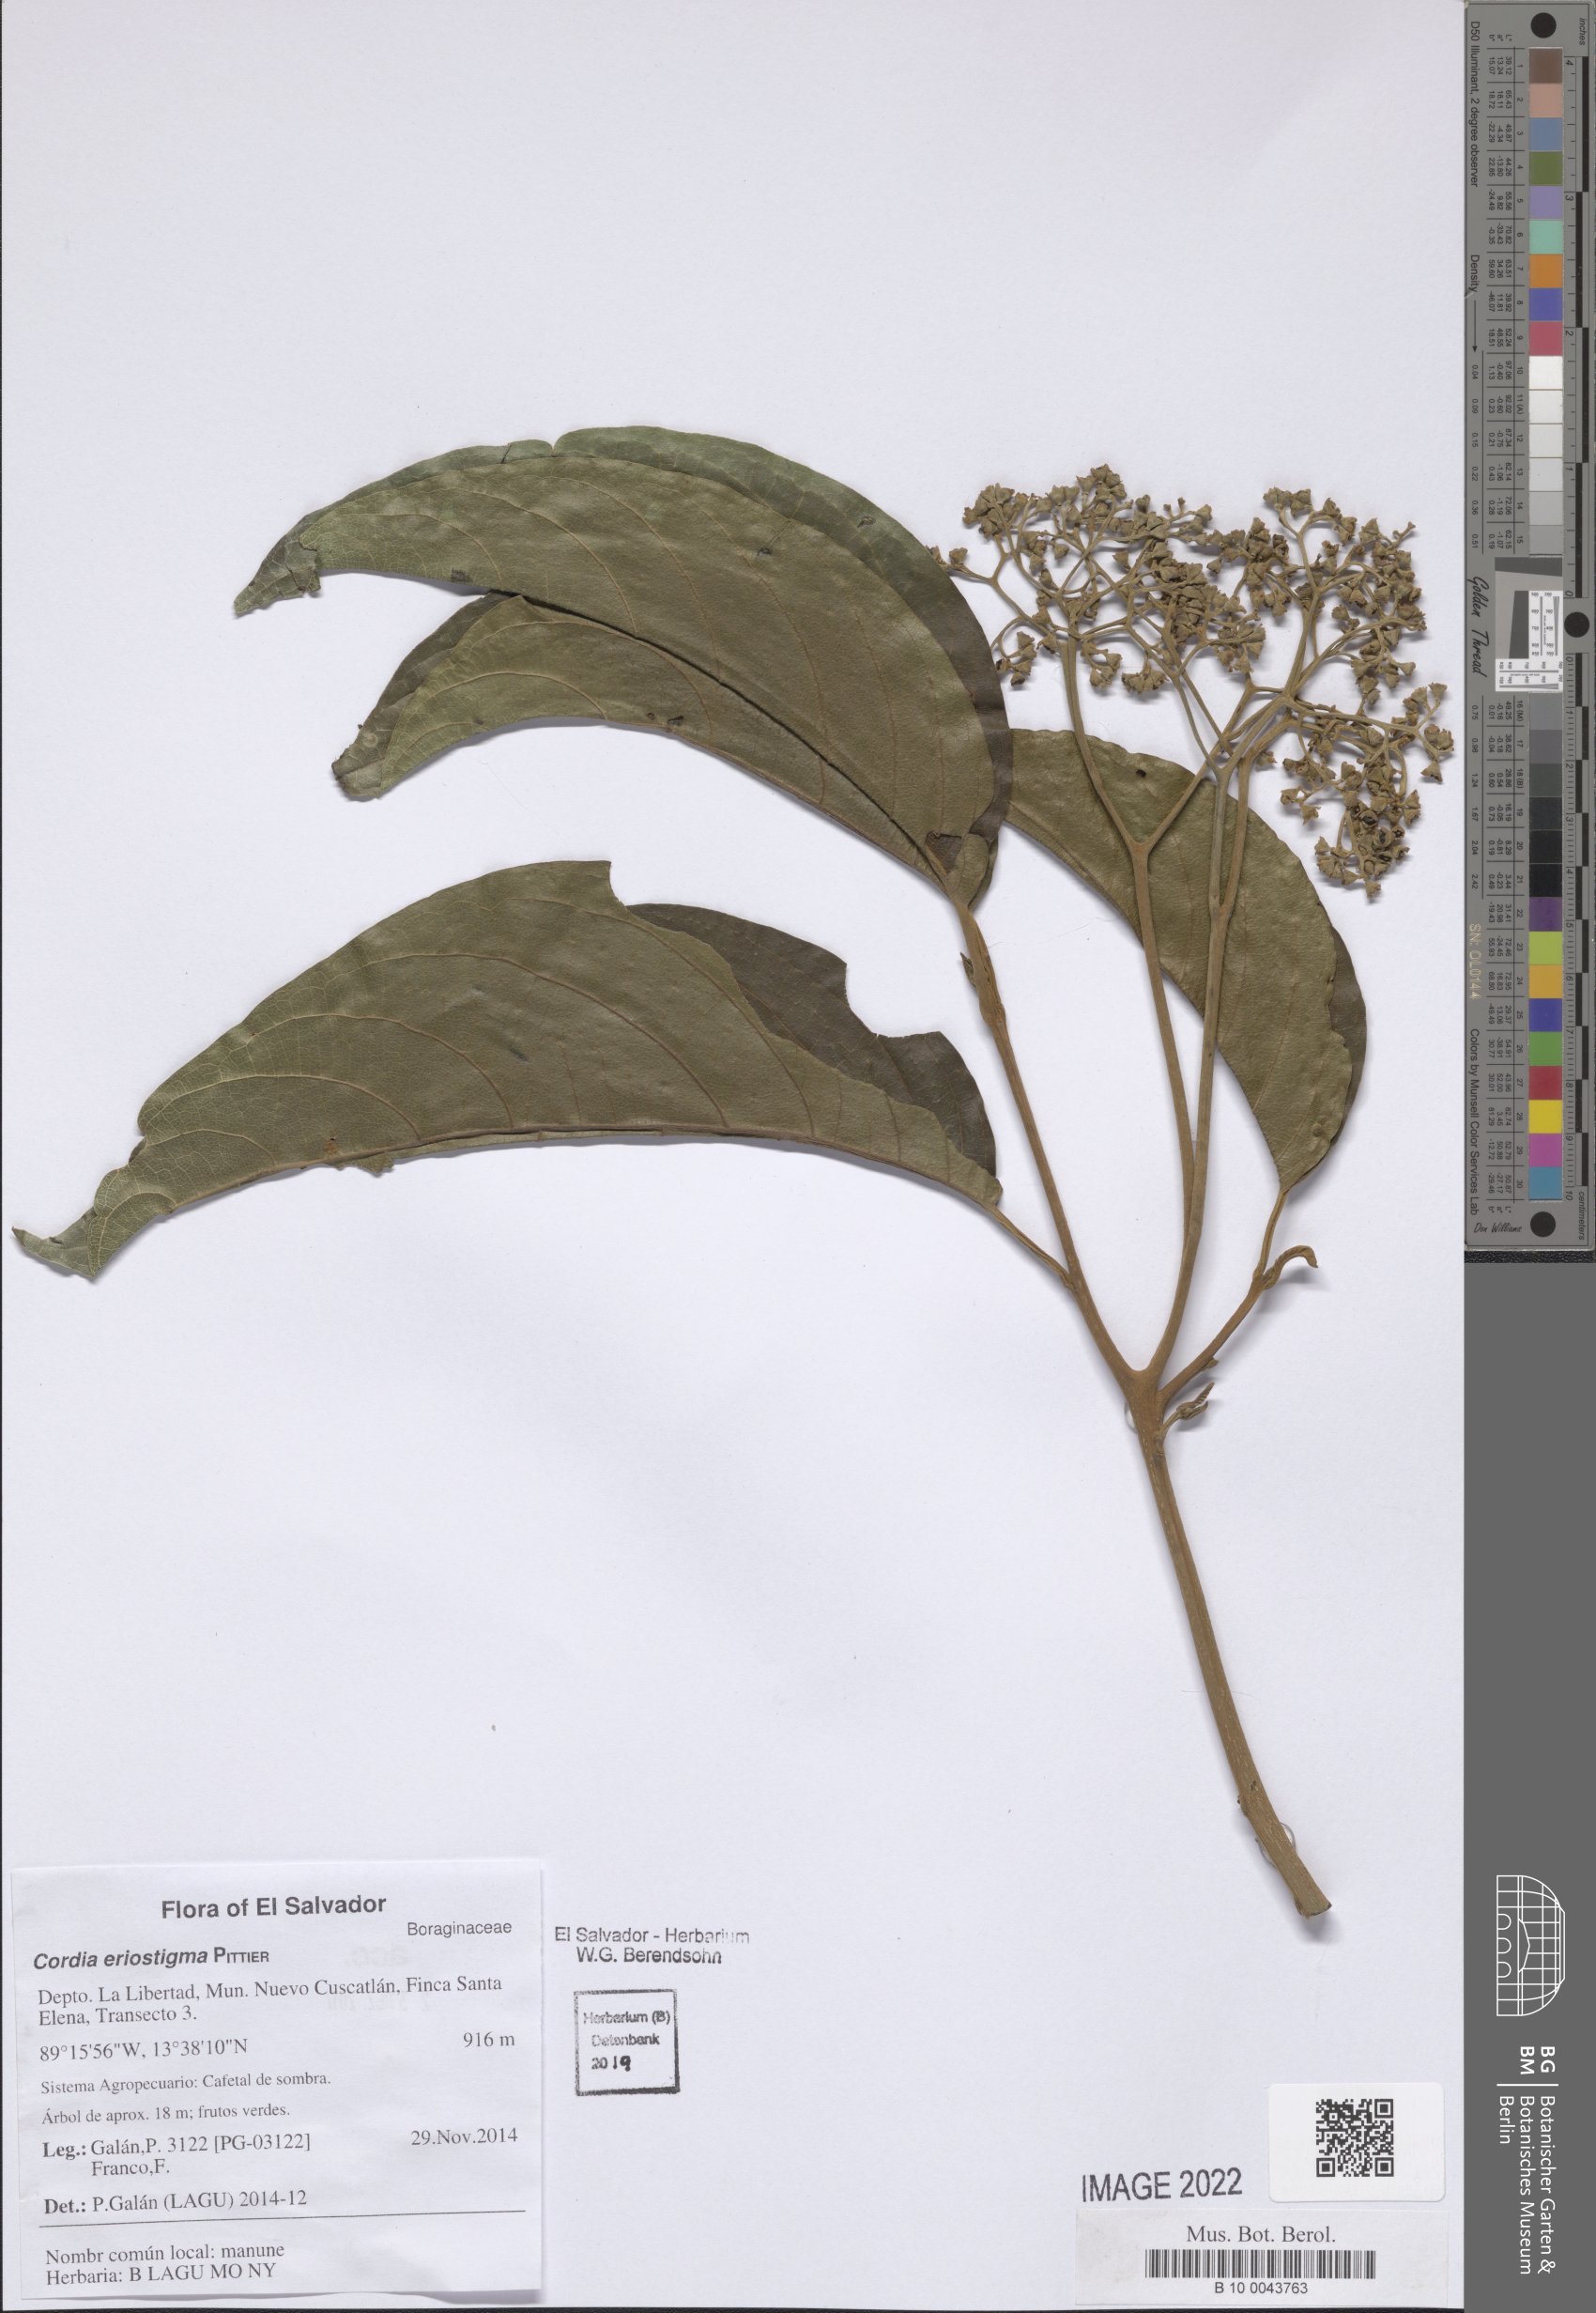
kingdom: Plantae
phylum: Tracheophyta
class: Magnoliopsida
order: Boraginales
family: Cordiaceae
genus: Cordia
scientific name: Cordia eriostigma
